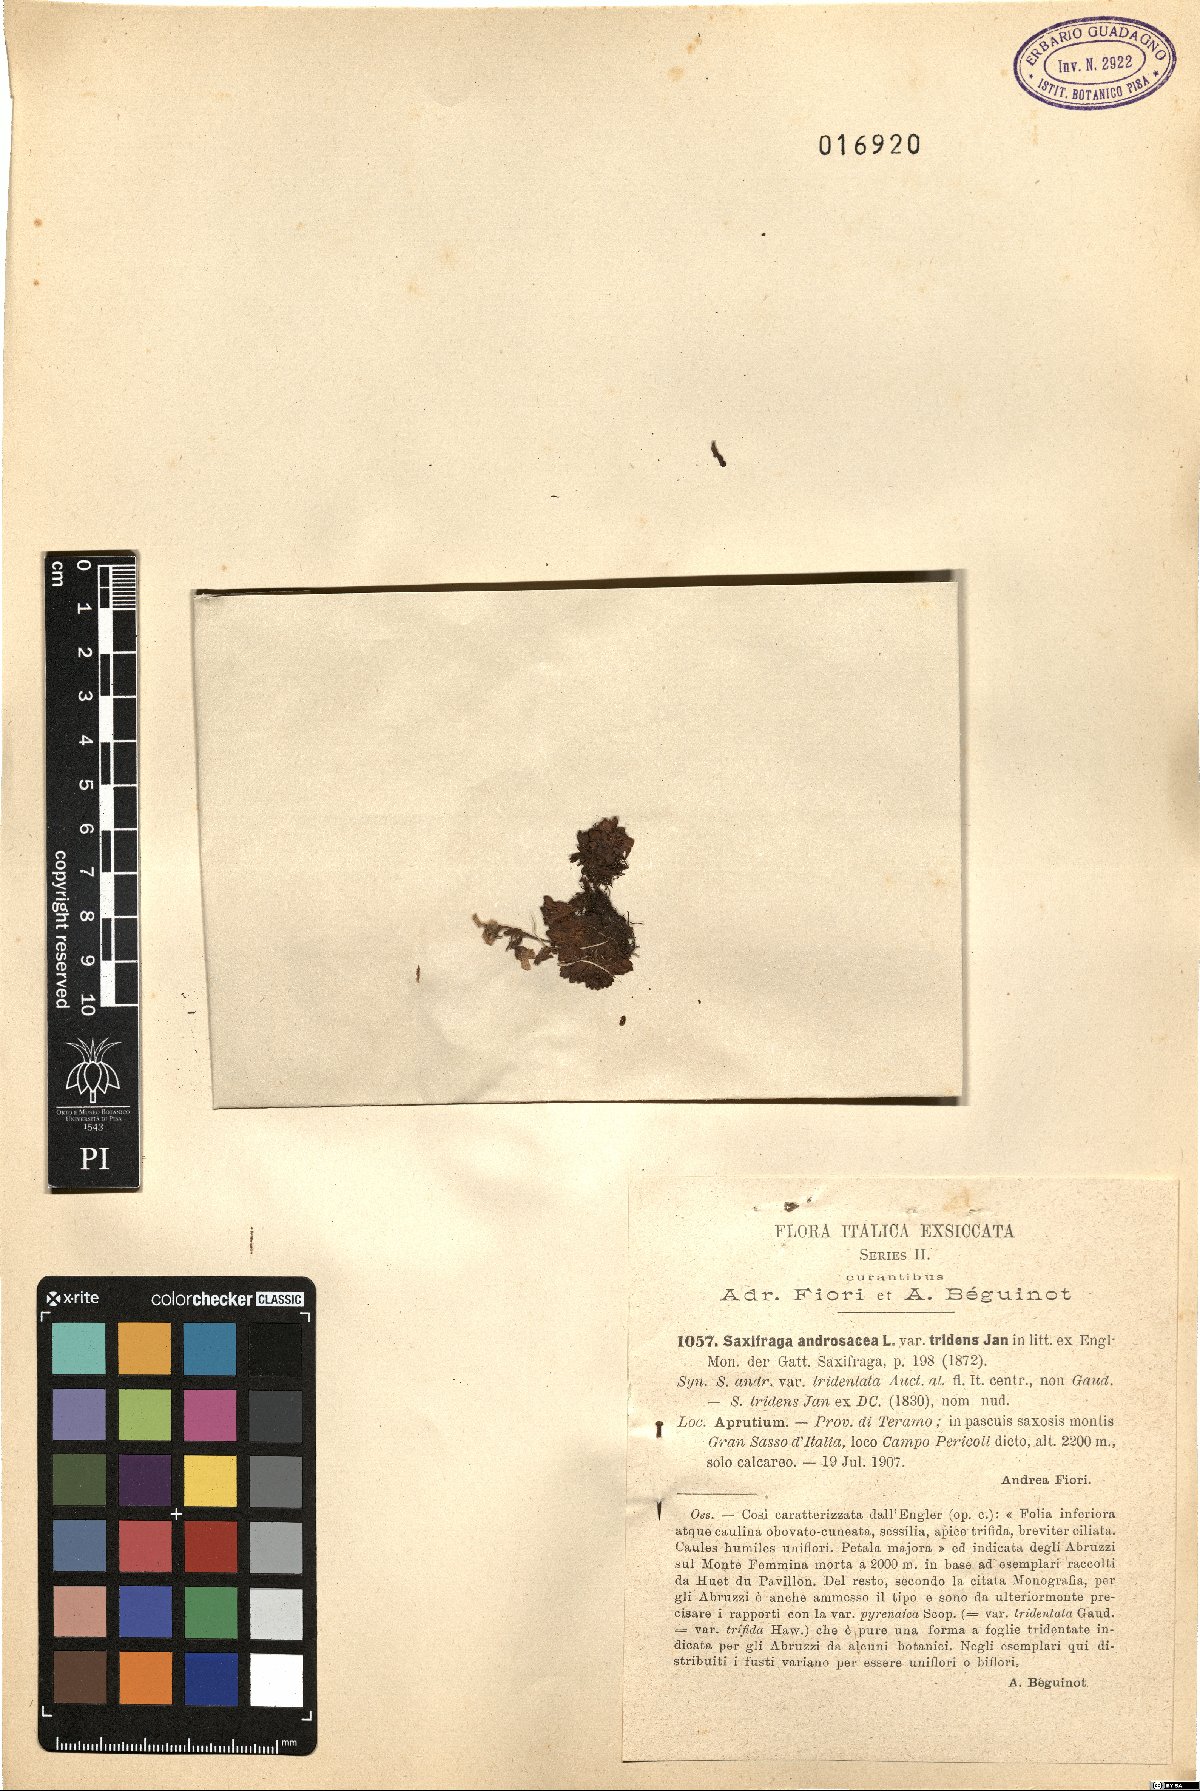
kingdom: Plantae
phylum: Tracheophyta
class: Magnoliopsida
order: Saxifragales
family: Saxifragaceae
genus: Saxifraga
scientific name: Saxifraga italica
